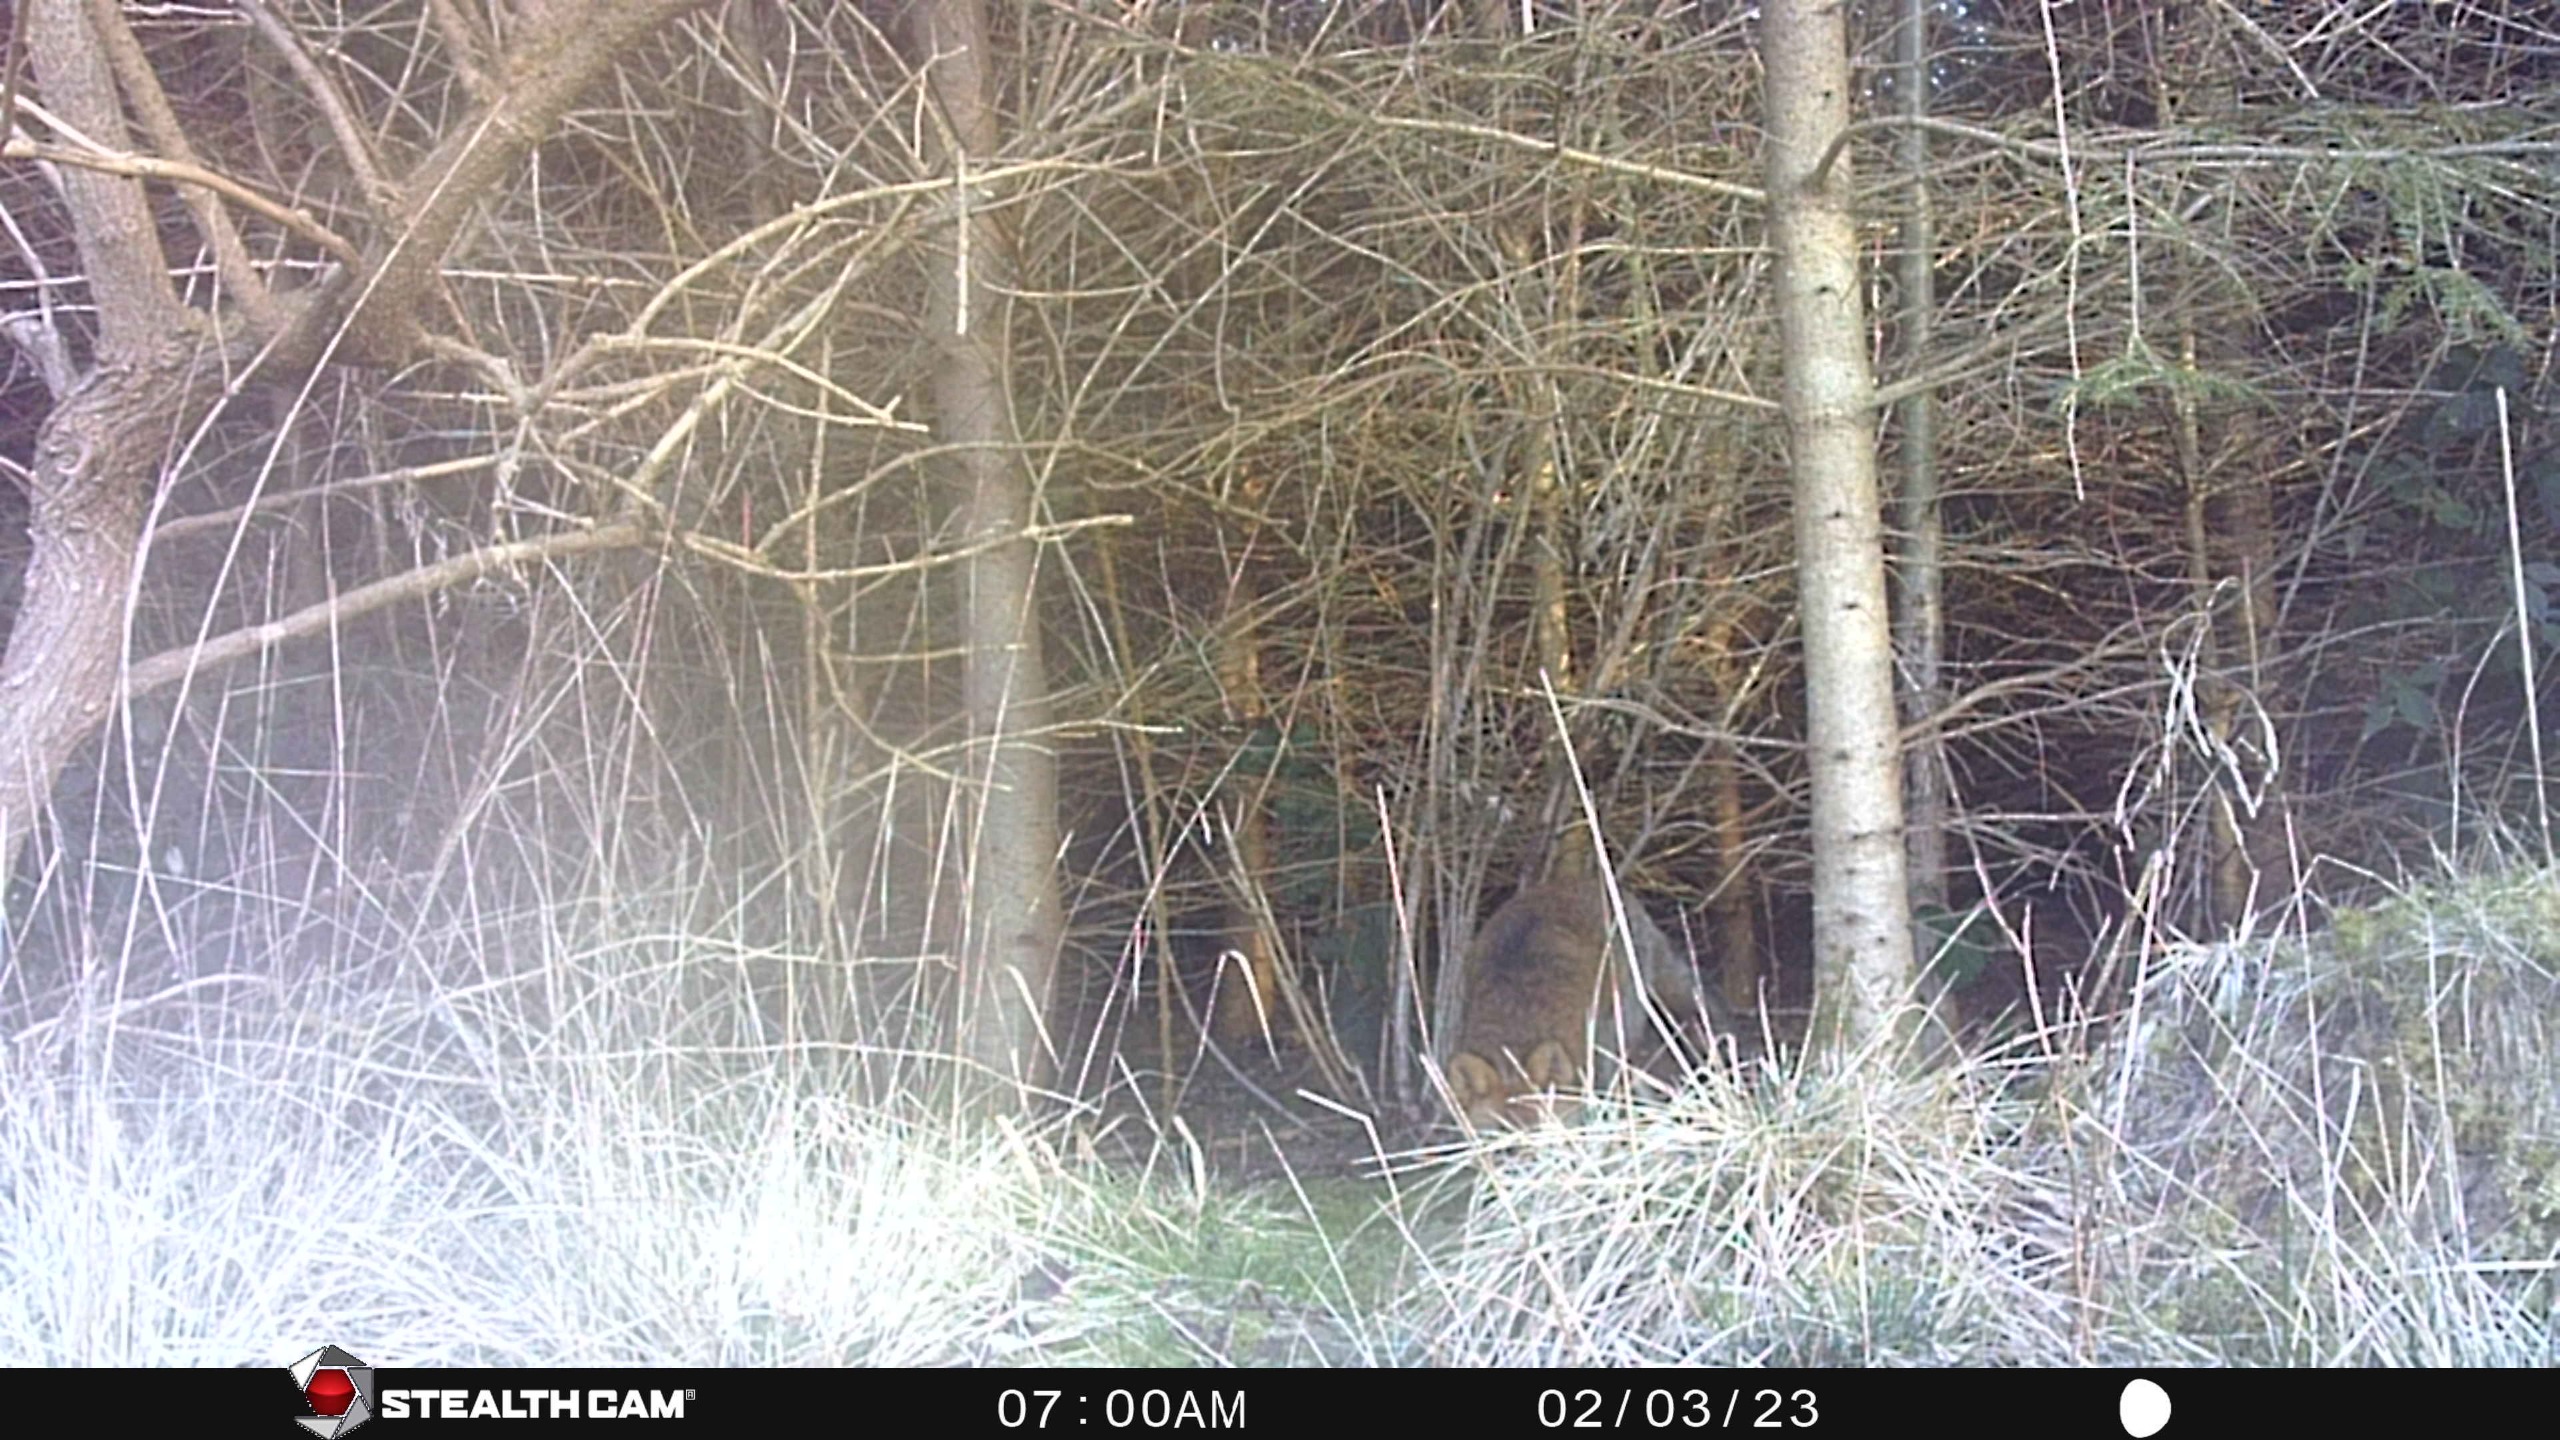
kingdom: Animalia
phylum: Chordata
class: Mammalia
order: Carnivora
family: Canidae
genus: Vulpes
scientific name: Vulpes vulpes
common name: Ræv
